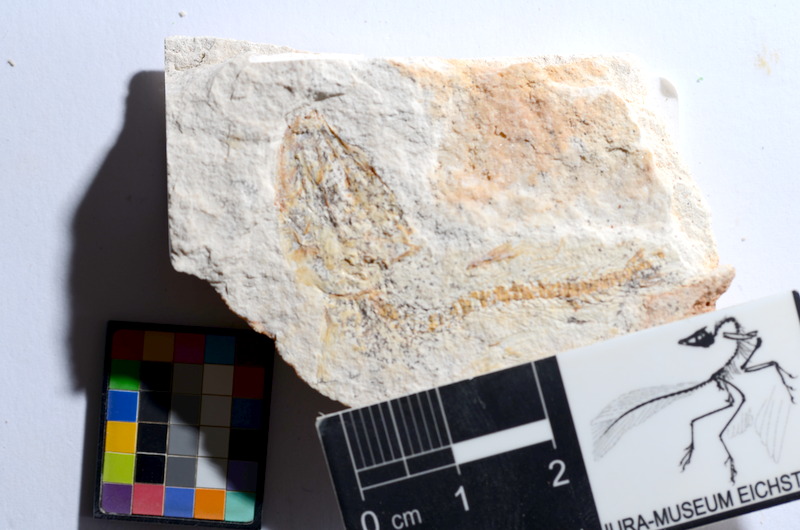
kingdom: Animalia
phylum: Chordata
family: Ascalaboidae
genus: Tharsis
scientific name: Tharsis dubius
